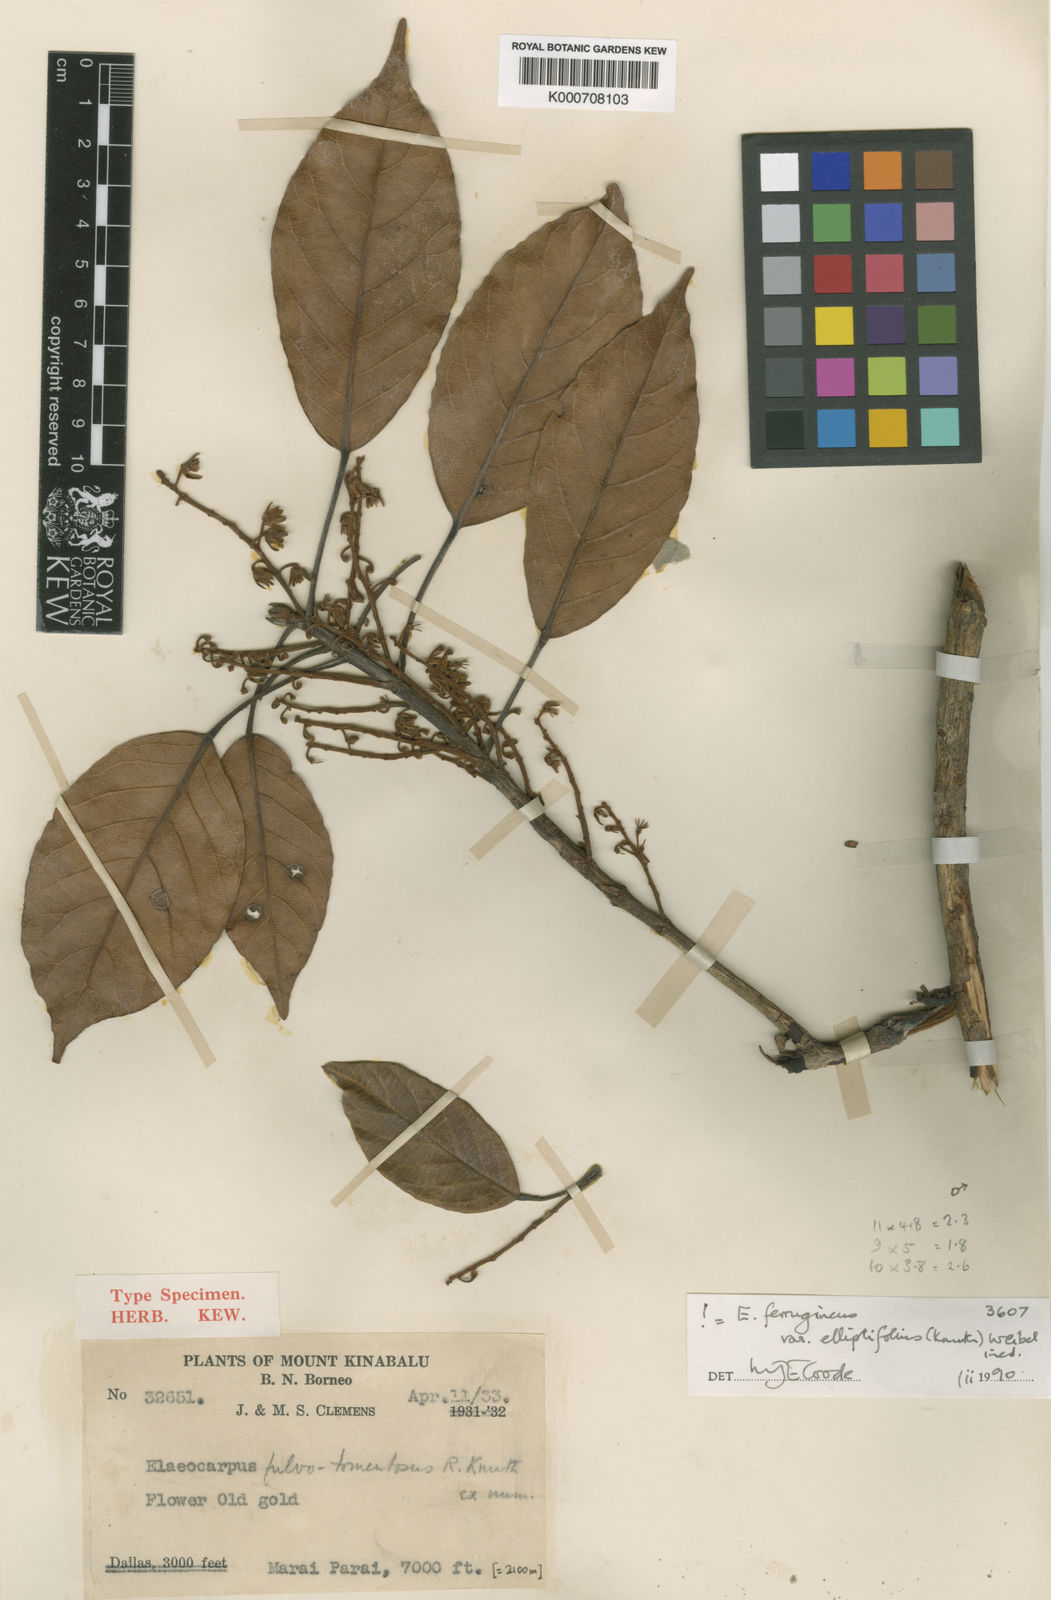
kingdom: Plantae
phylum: Tracheophyta
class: Magnoliopsida
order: Oxalidales
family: Elaeocarpaceae
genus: Elaeocarpus
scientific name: Elaeocarpus ferrugineus
